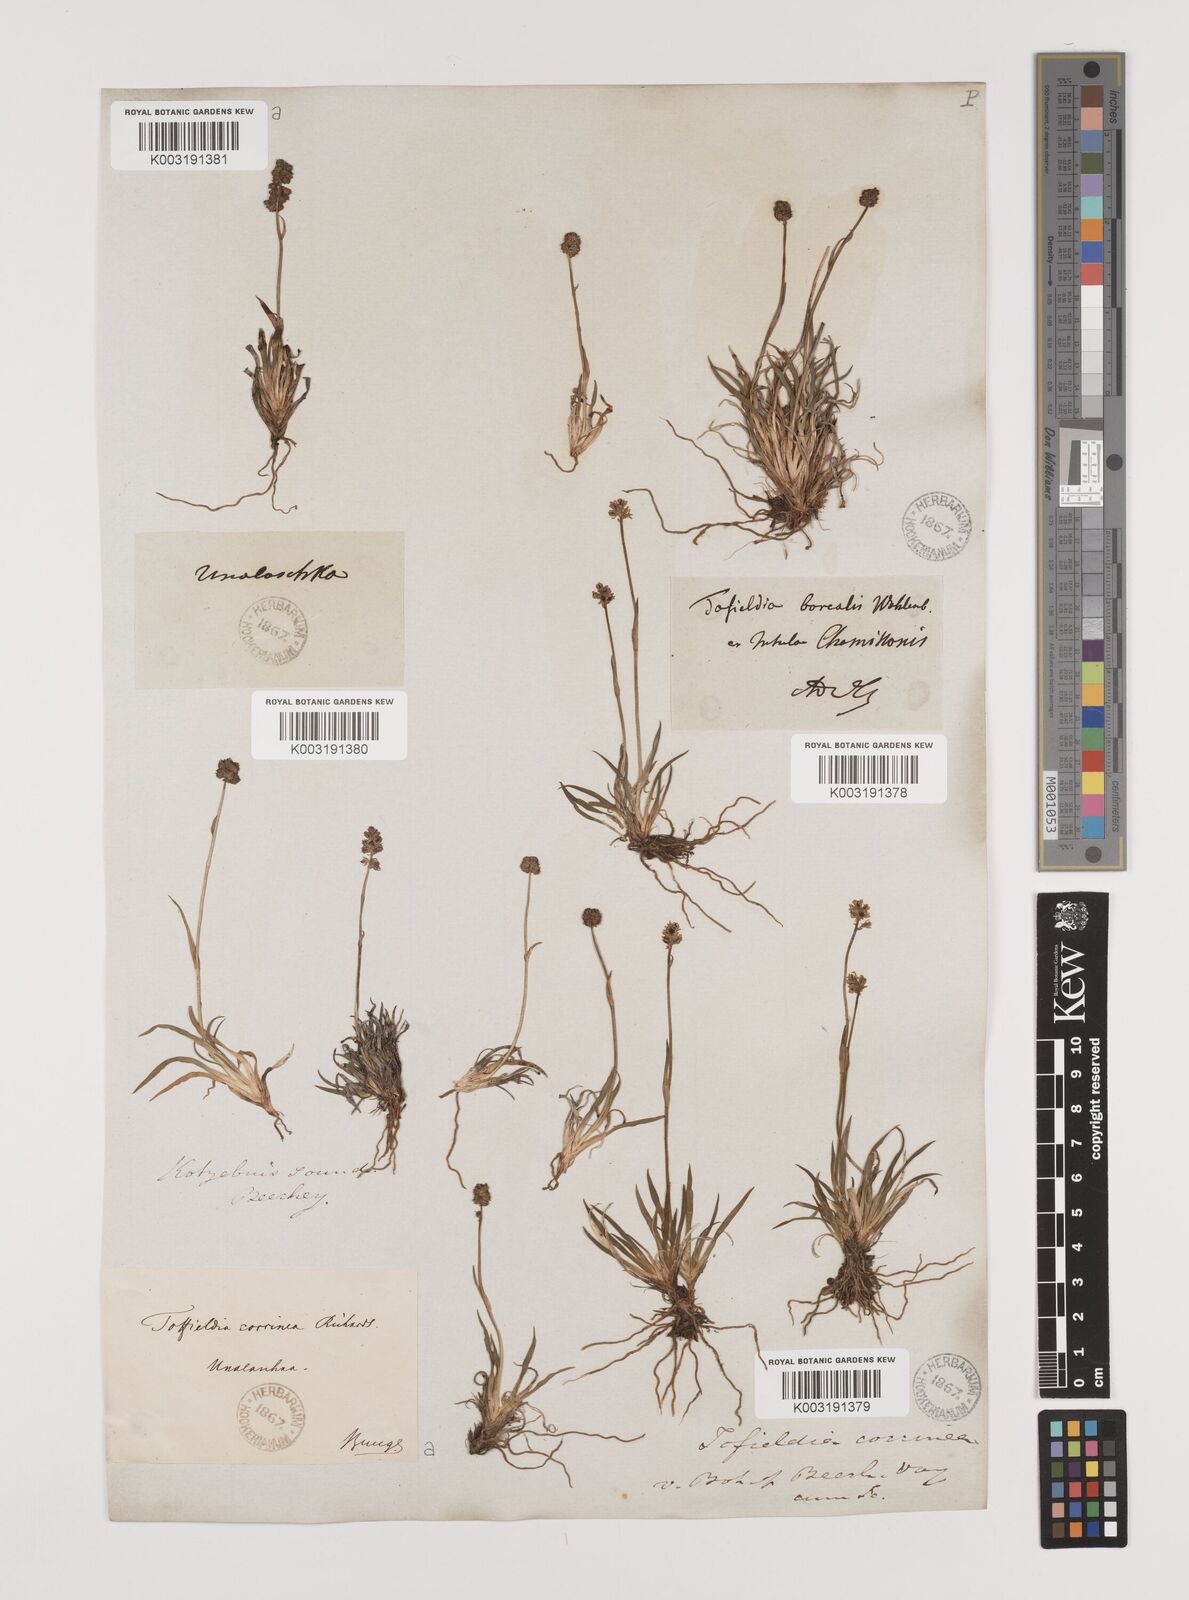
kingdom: Plantae
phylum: Tracheophyta
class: Liliopsida
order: Alismatales
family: Tofieldiaceae
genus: Tofieldia
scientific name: Tofieldia coccinea
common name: Northern false asphodel
